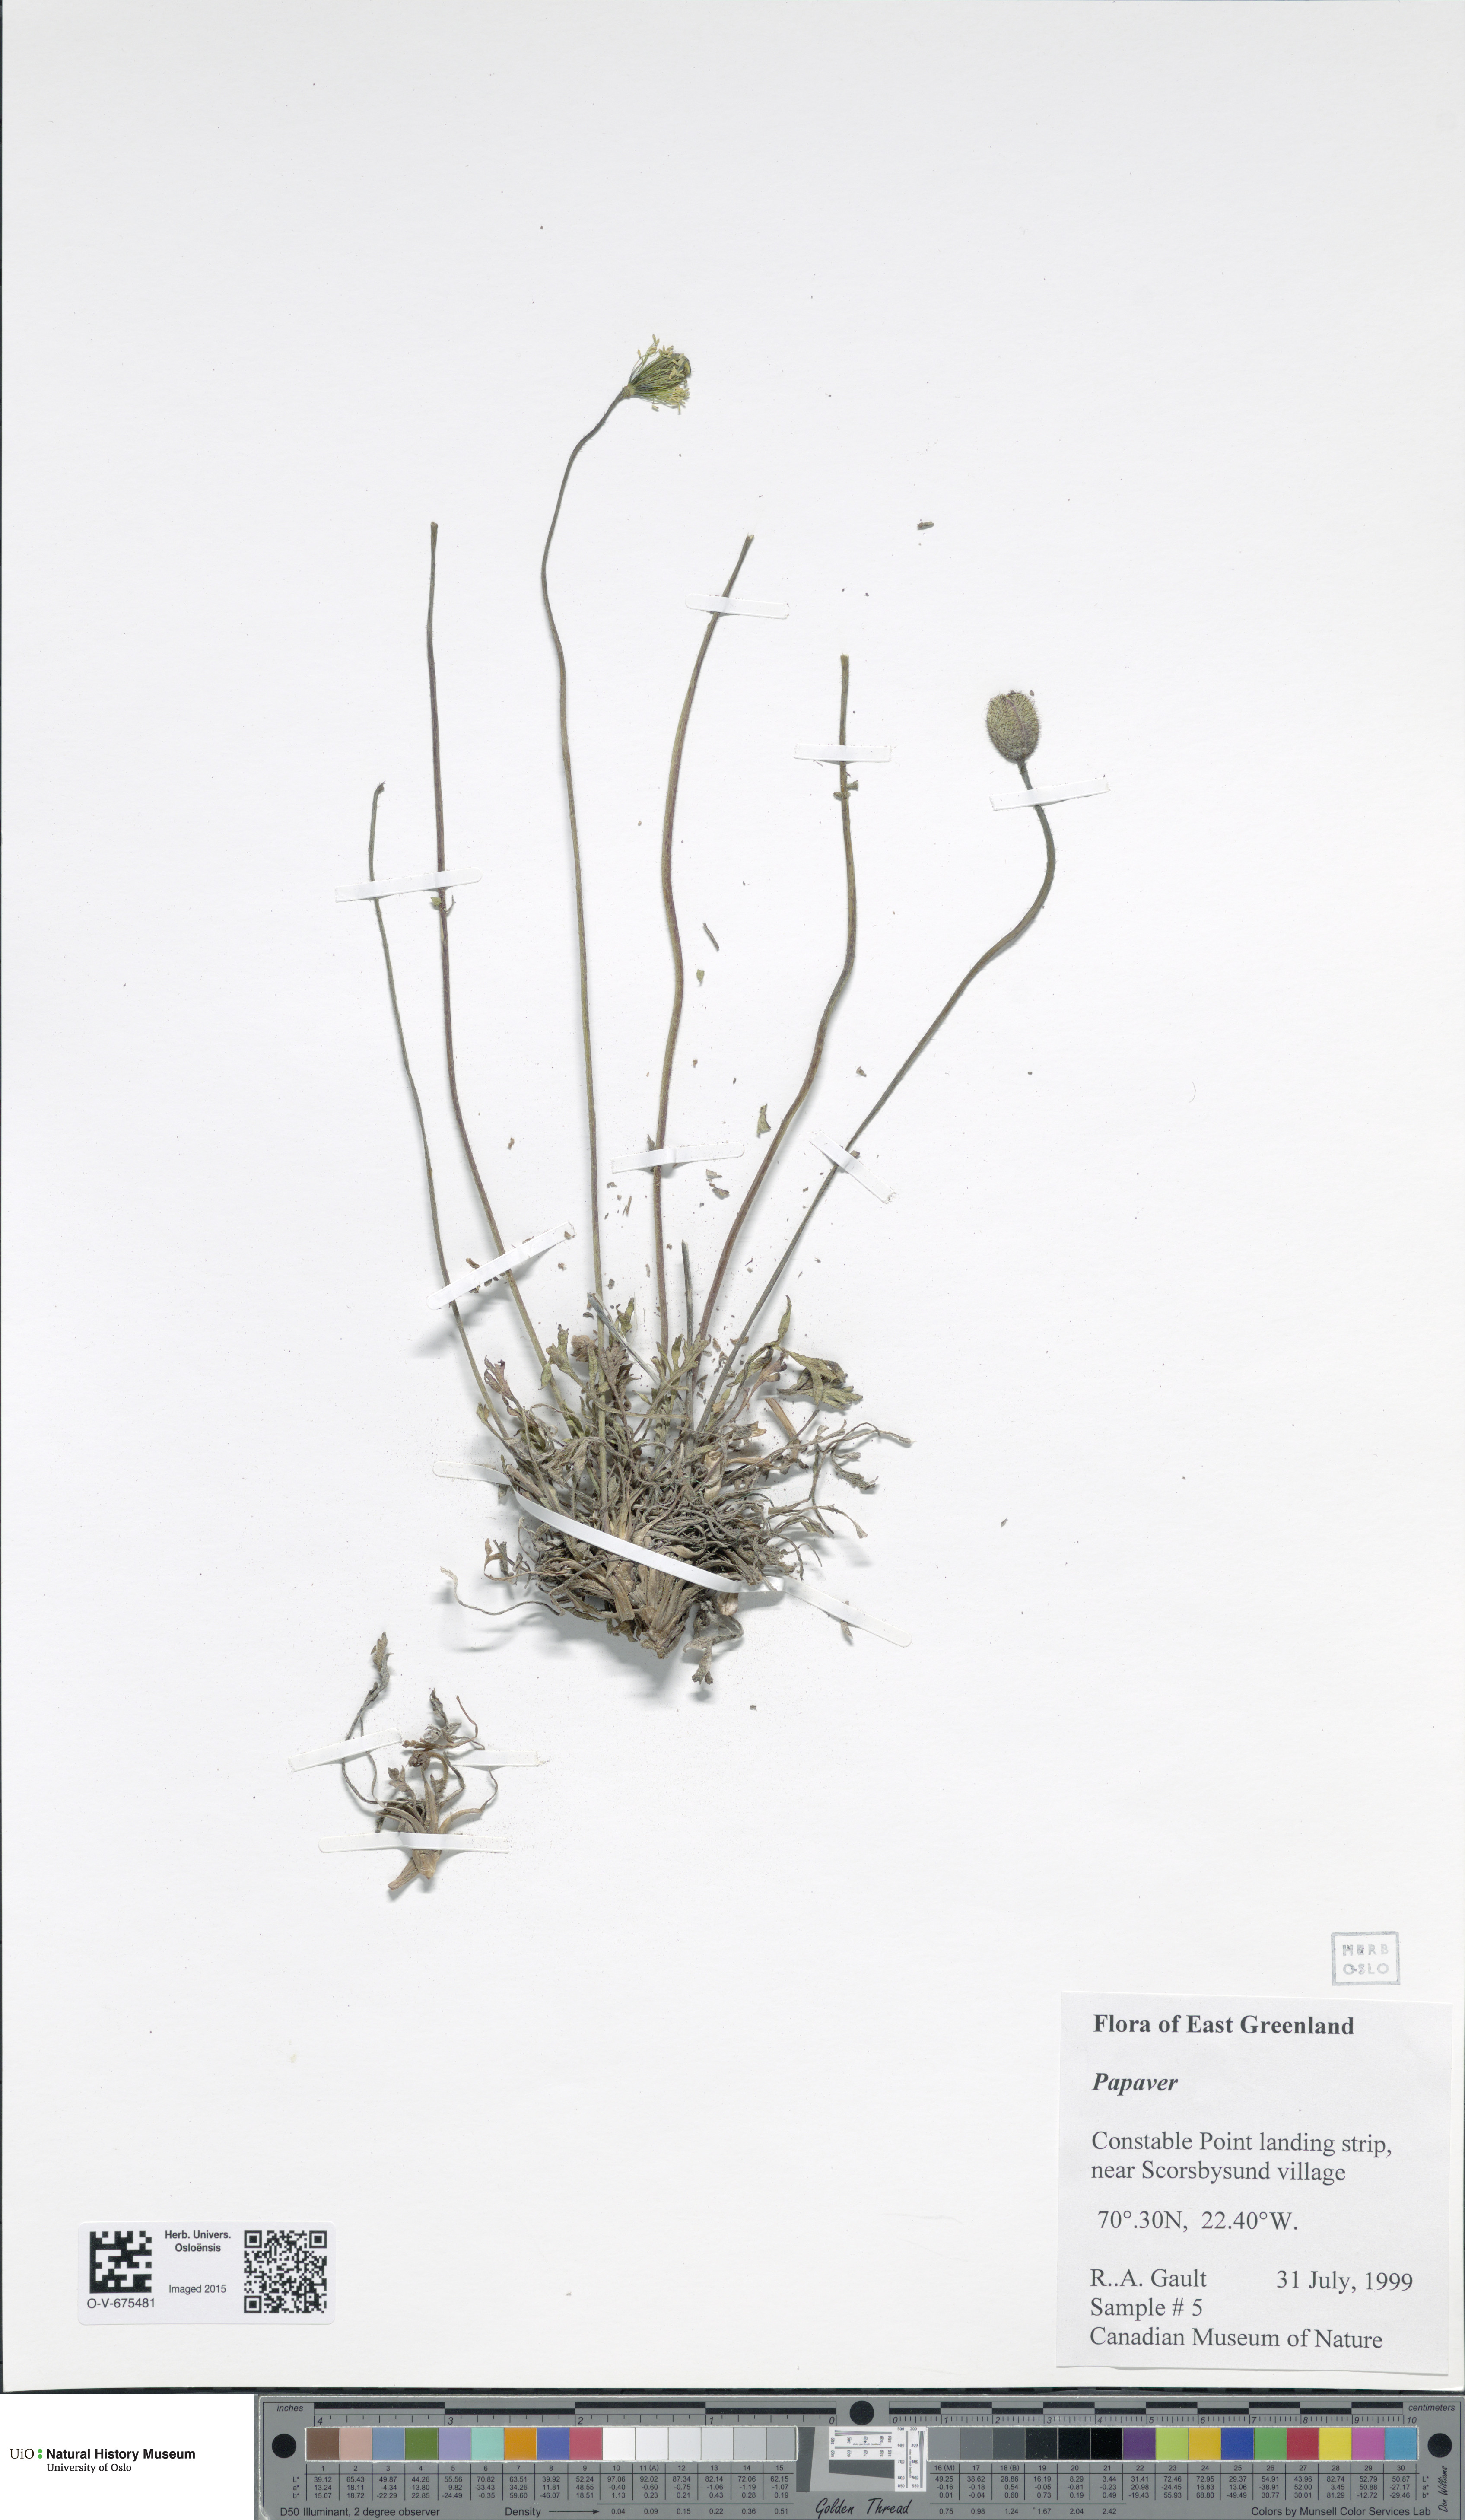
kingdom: Plantae
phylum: Tracheophyta
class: Magnoliopsida
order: Ranunculales
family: Papaveraceae
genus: Papaver
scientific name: Papaver
